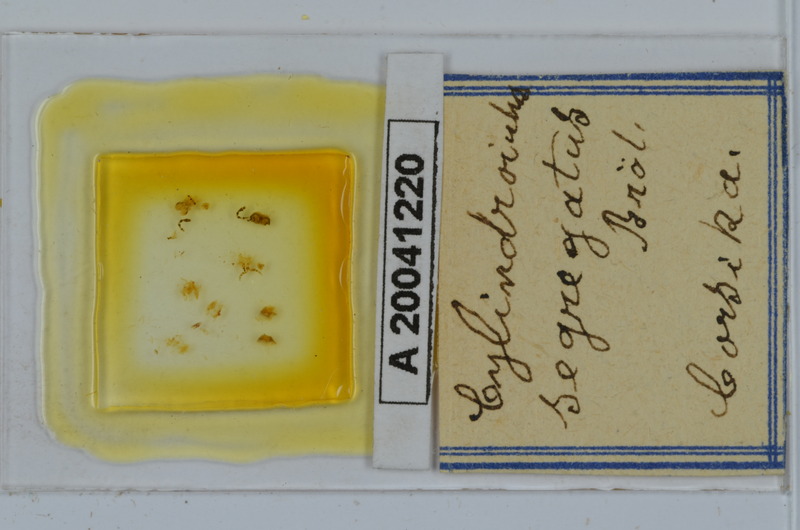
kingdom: Animalia
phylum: Arthropoda
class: Diplopoda
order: Julida
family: Julidae
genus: Cylindroiulus
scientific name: Cylindroiulus segregatus
